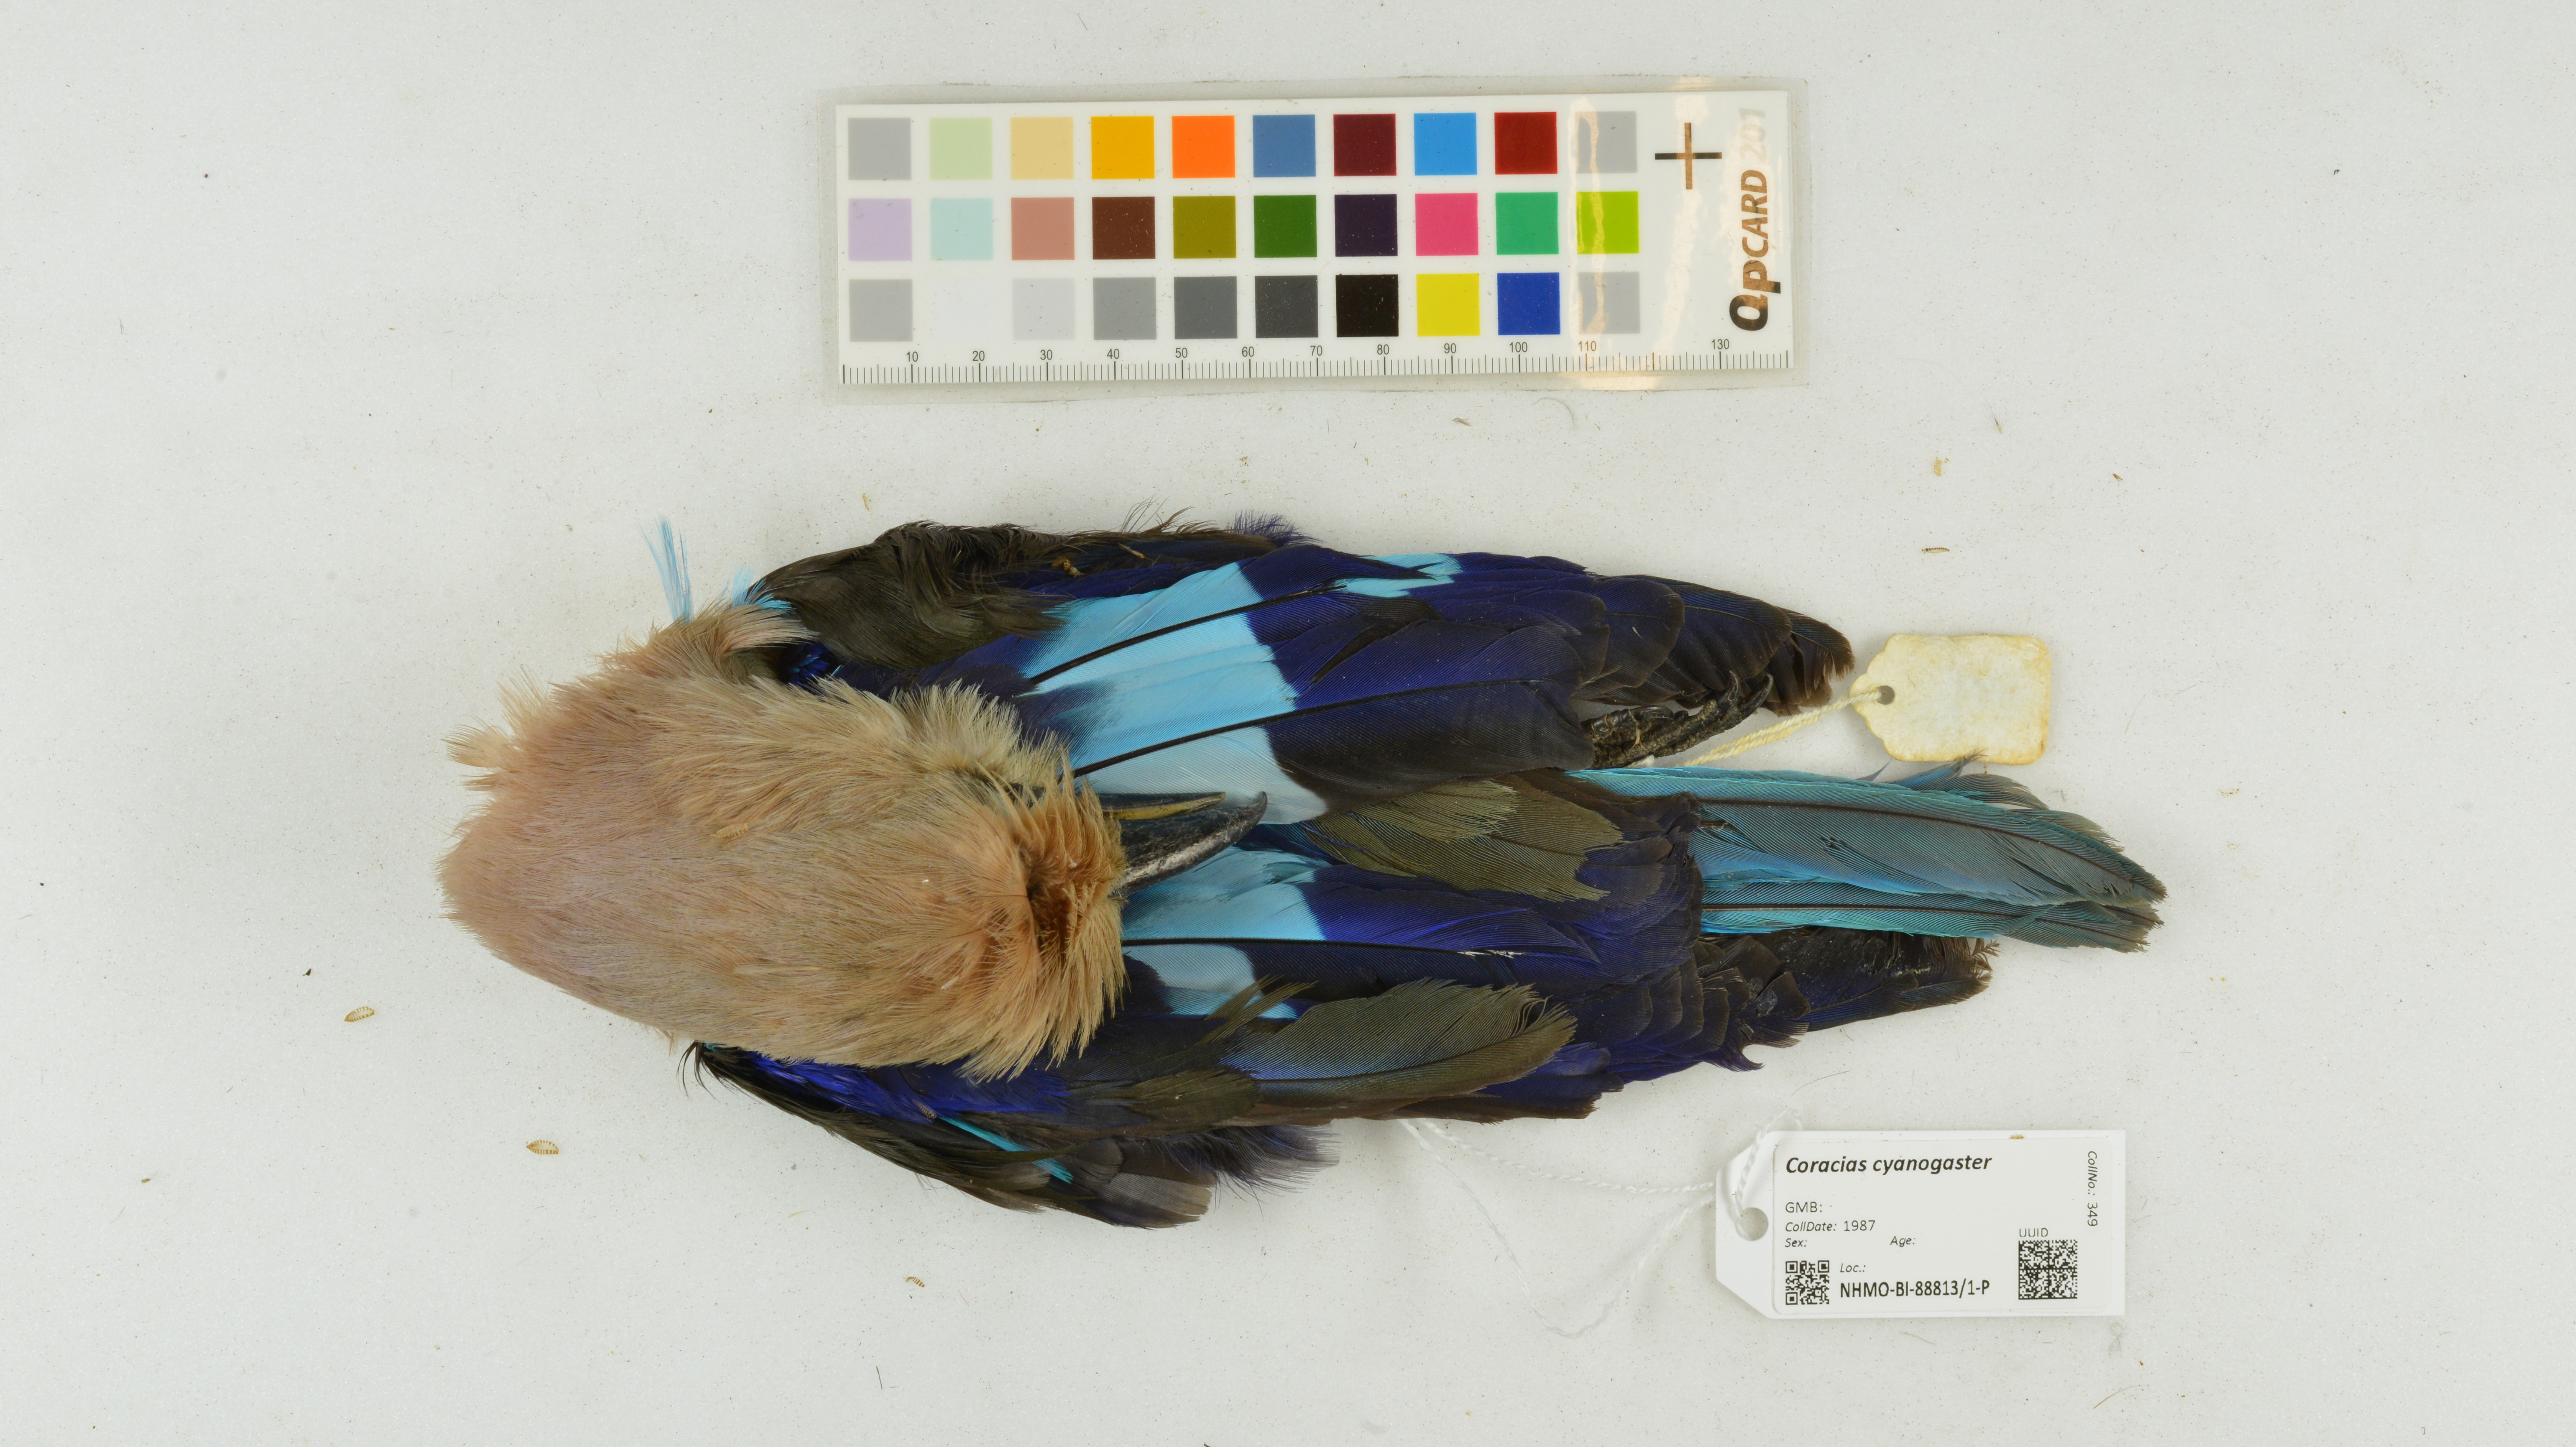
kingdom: Animalia
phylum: Chordata
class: Aves
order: Coraciiformes
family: Coraciidae
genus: Coracias
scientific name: Coracias cyanogaster
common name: Blue-bellied roller
